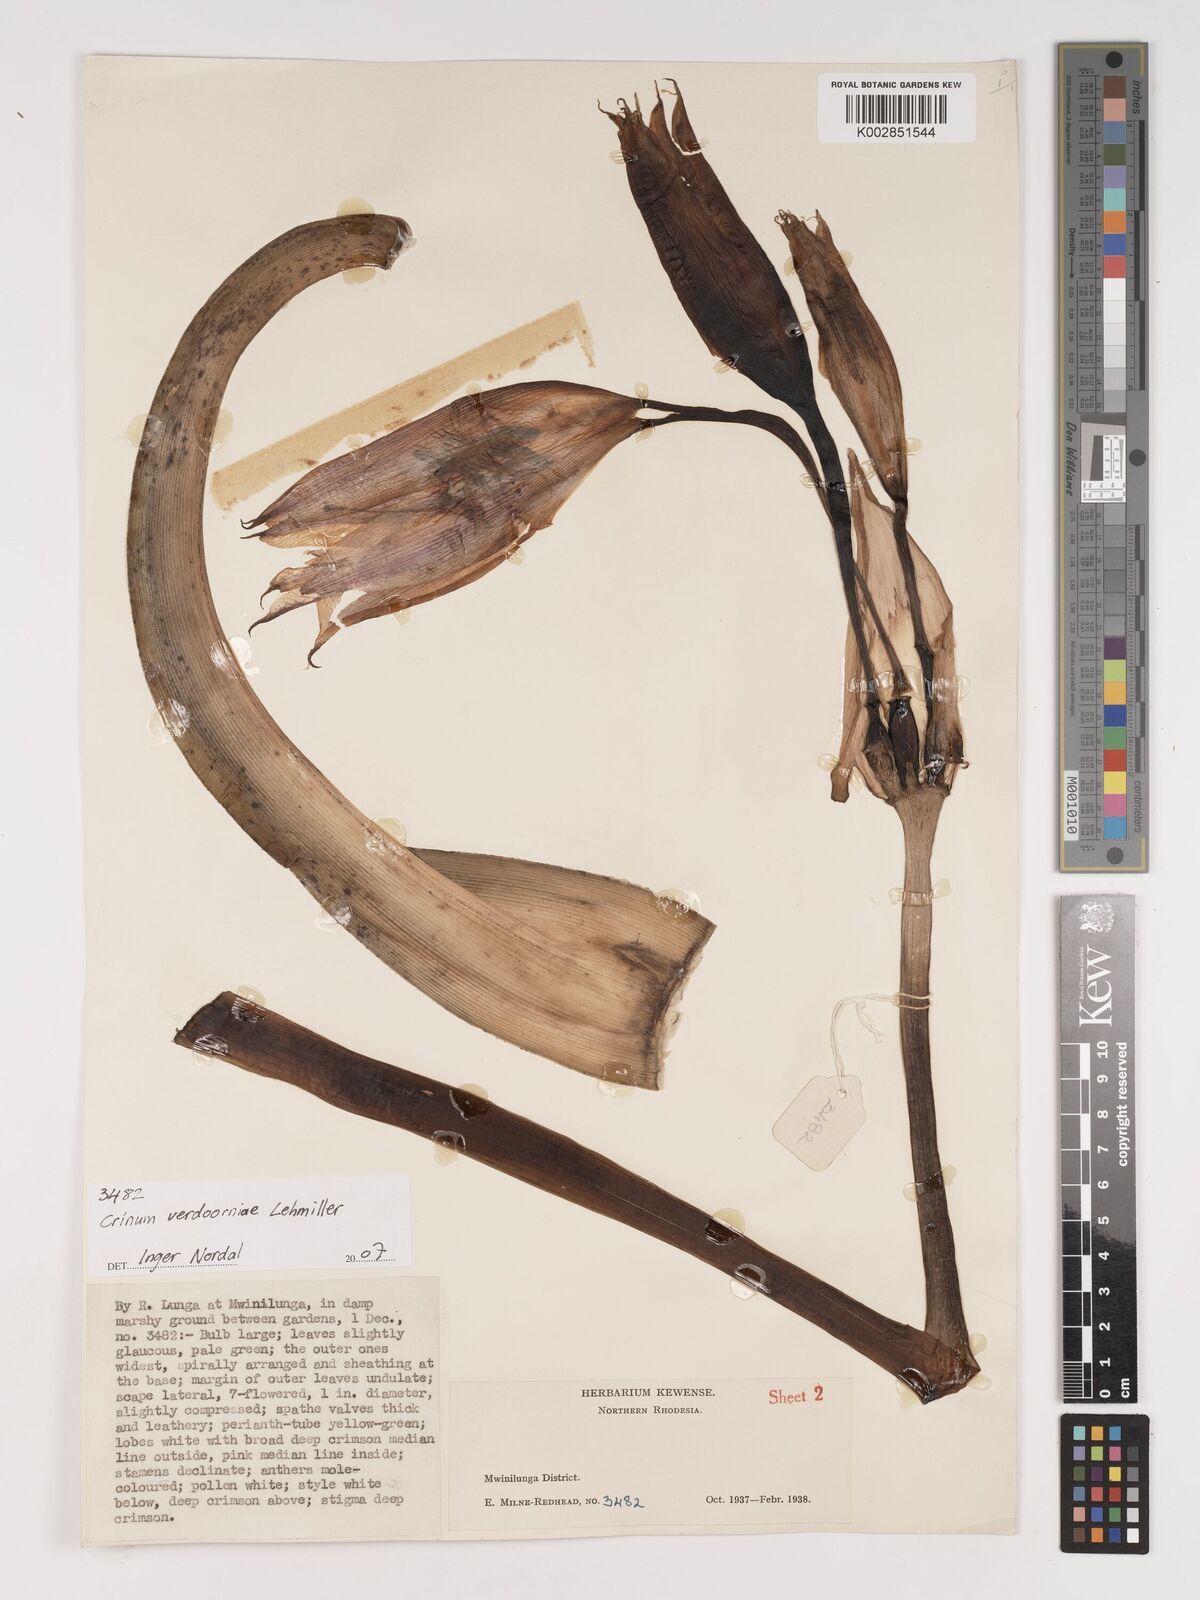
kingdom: Plantae
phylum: Tracheophyta
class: Liliopsida
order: Asparagales
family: Amaryllidaceae
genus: Crinum
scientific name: Crinum verdoorniae
